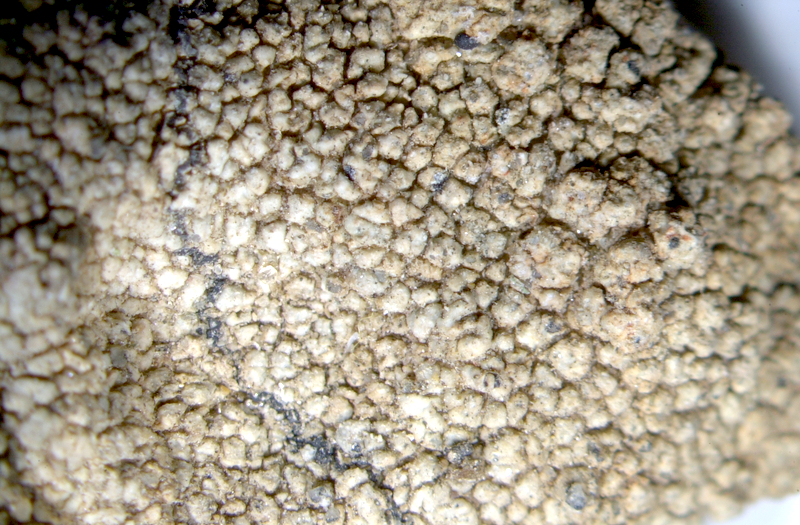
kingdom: Fungi
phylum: Ascomycota
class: Lecanoromycetes
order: Lecanorales
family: Ramalinaceae
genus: Ramalina
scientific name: Ramalina capensis
